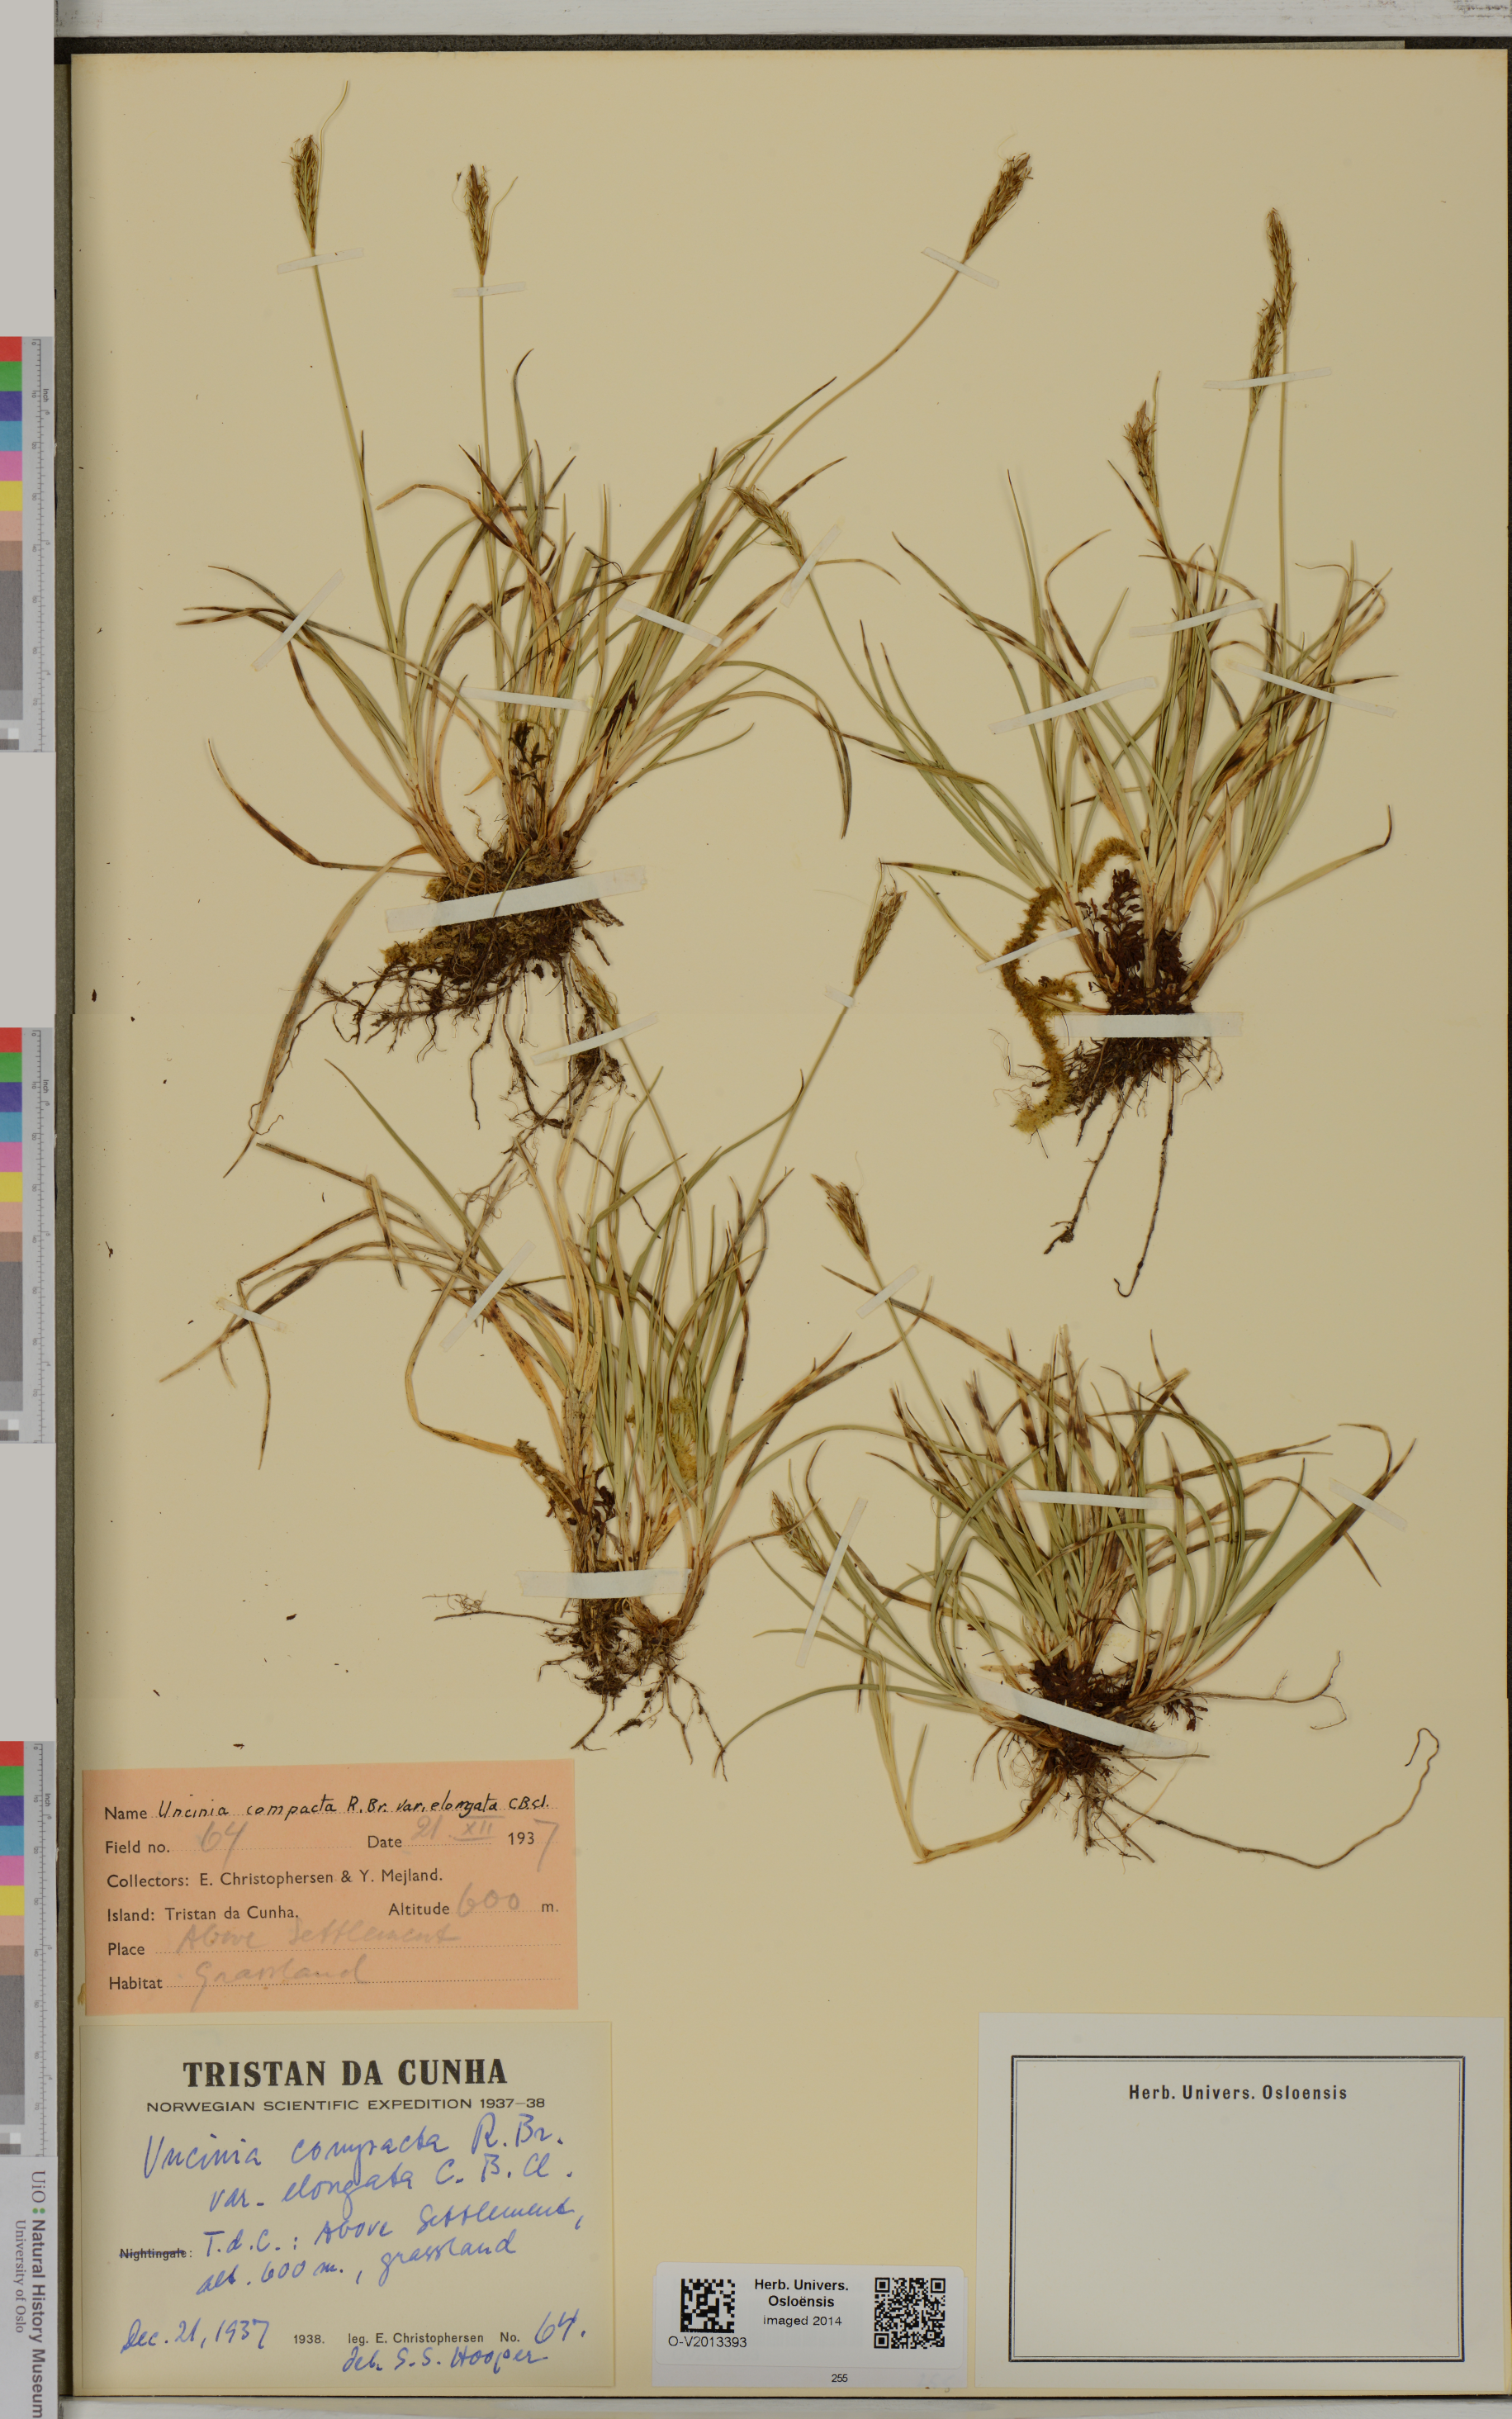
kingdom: Plantae
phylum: Tracheophyta
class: Liliopsida
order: Poales
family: Cyperaceae
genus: Carex
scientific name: Carex austrocompacta
